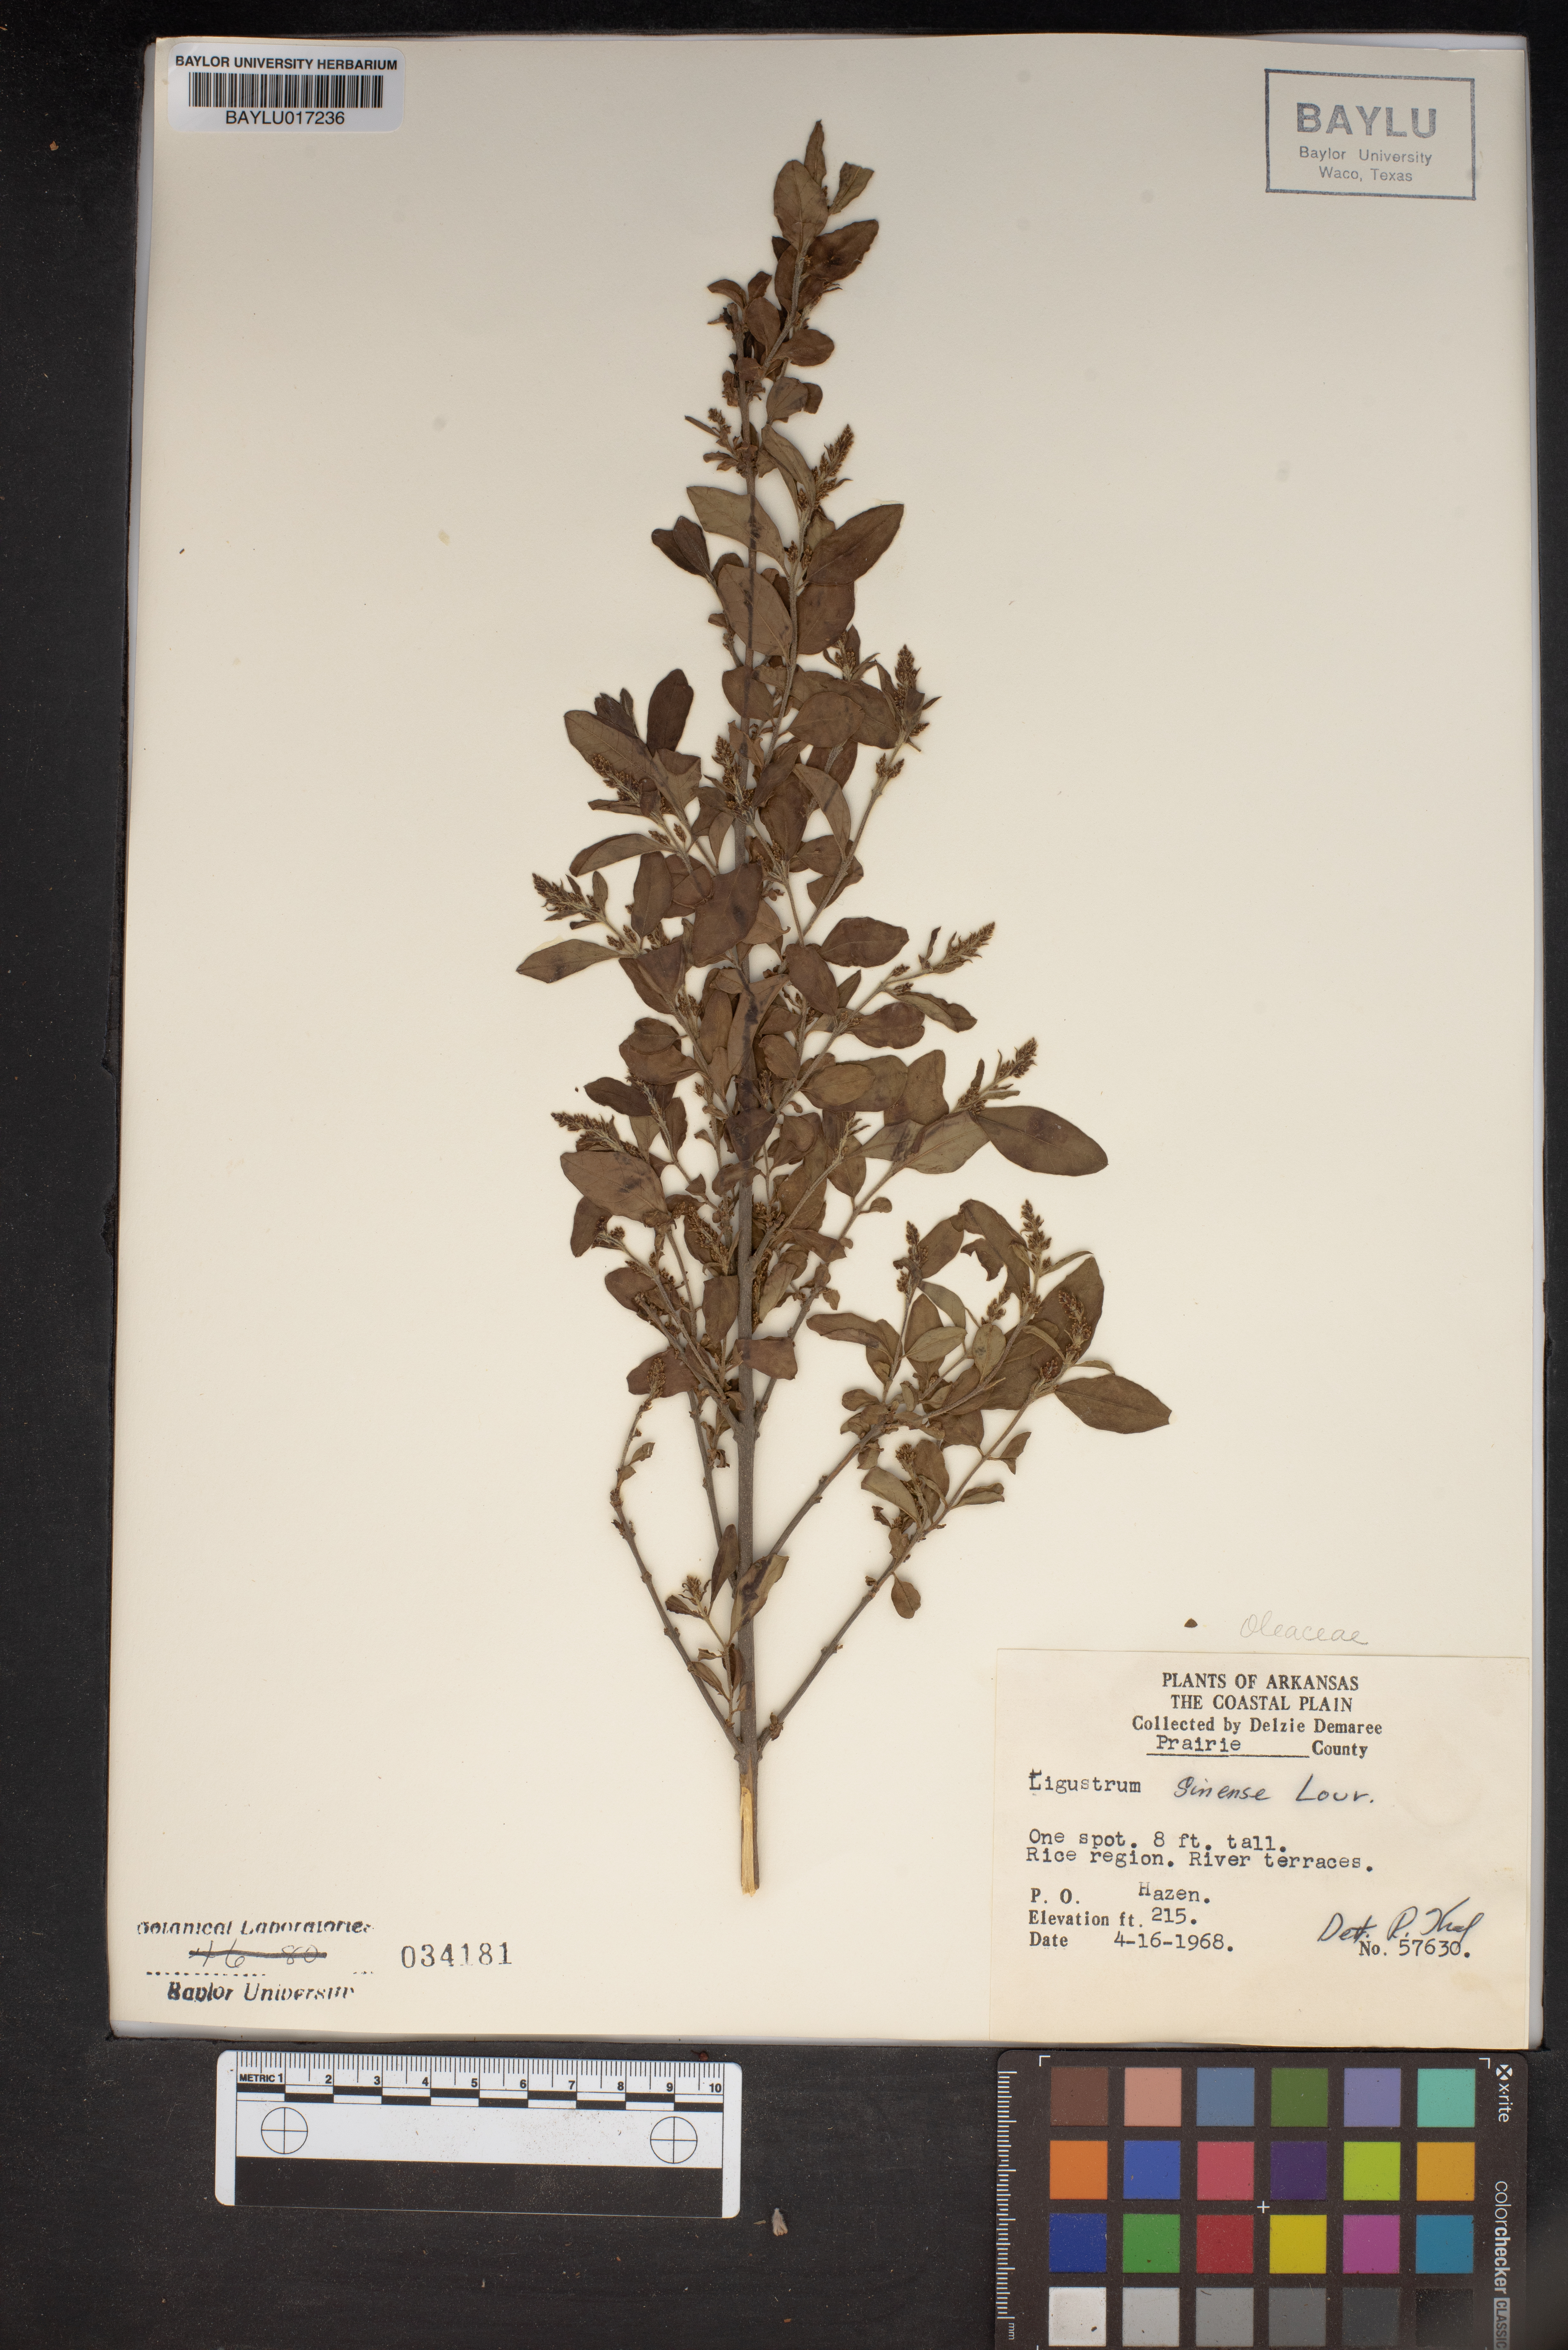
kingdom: Plantae
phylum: Tracheophyta
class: Magnoliopsida
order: Lamiales
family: Oleaceae
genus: Ligustrum
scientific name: Ligustrum sinense
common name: Chinese privet
